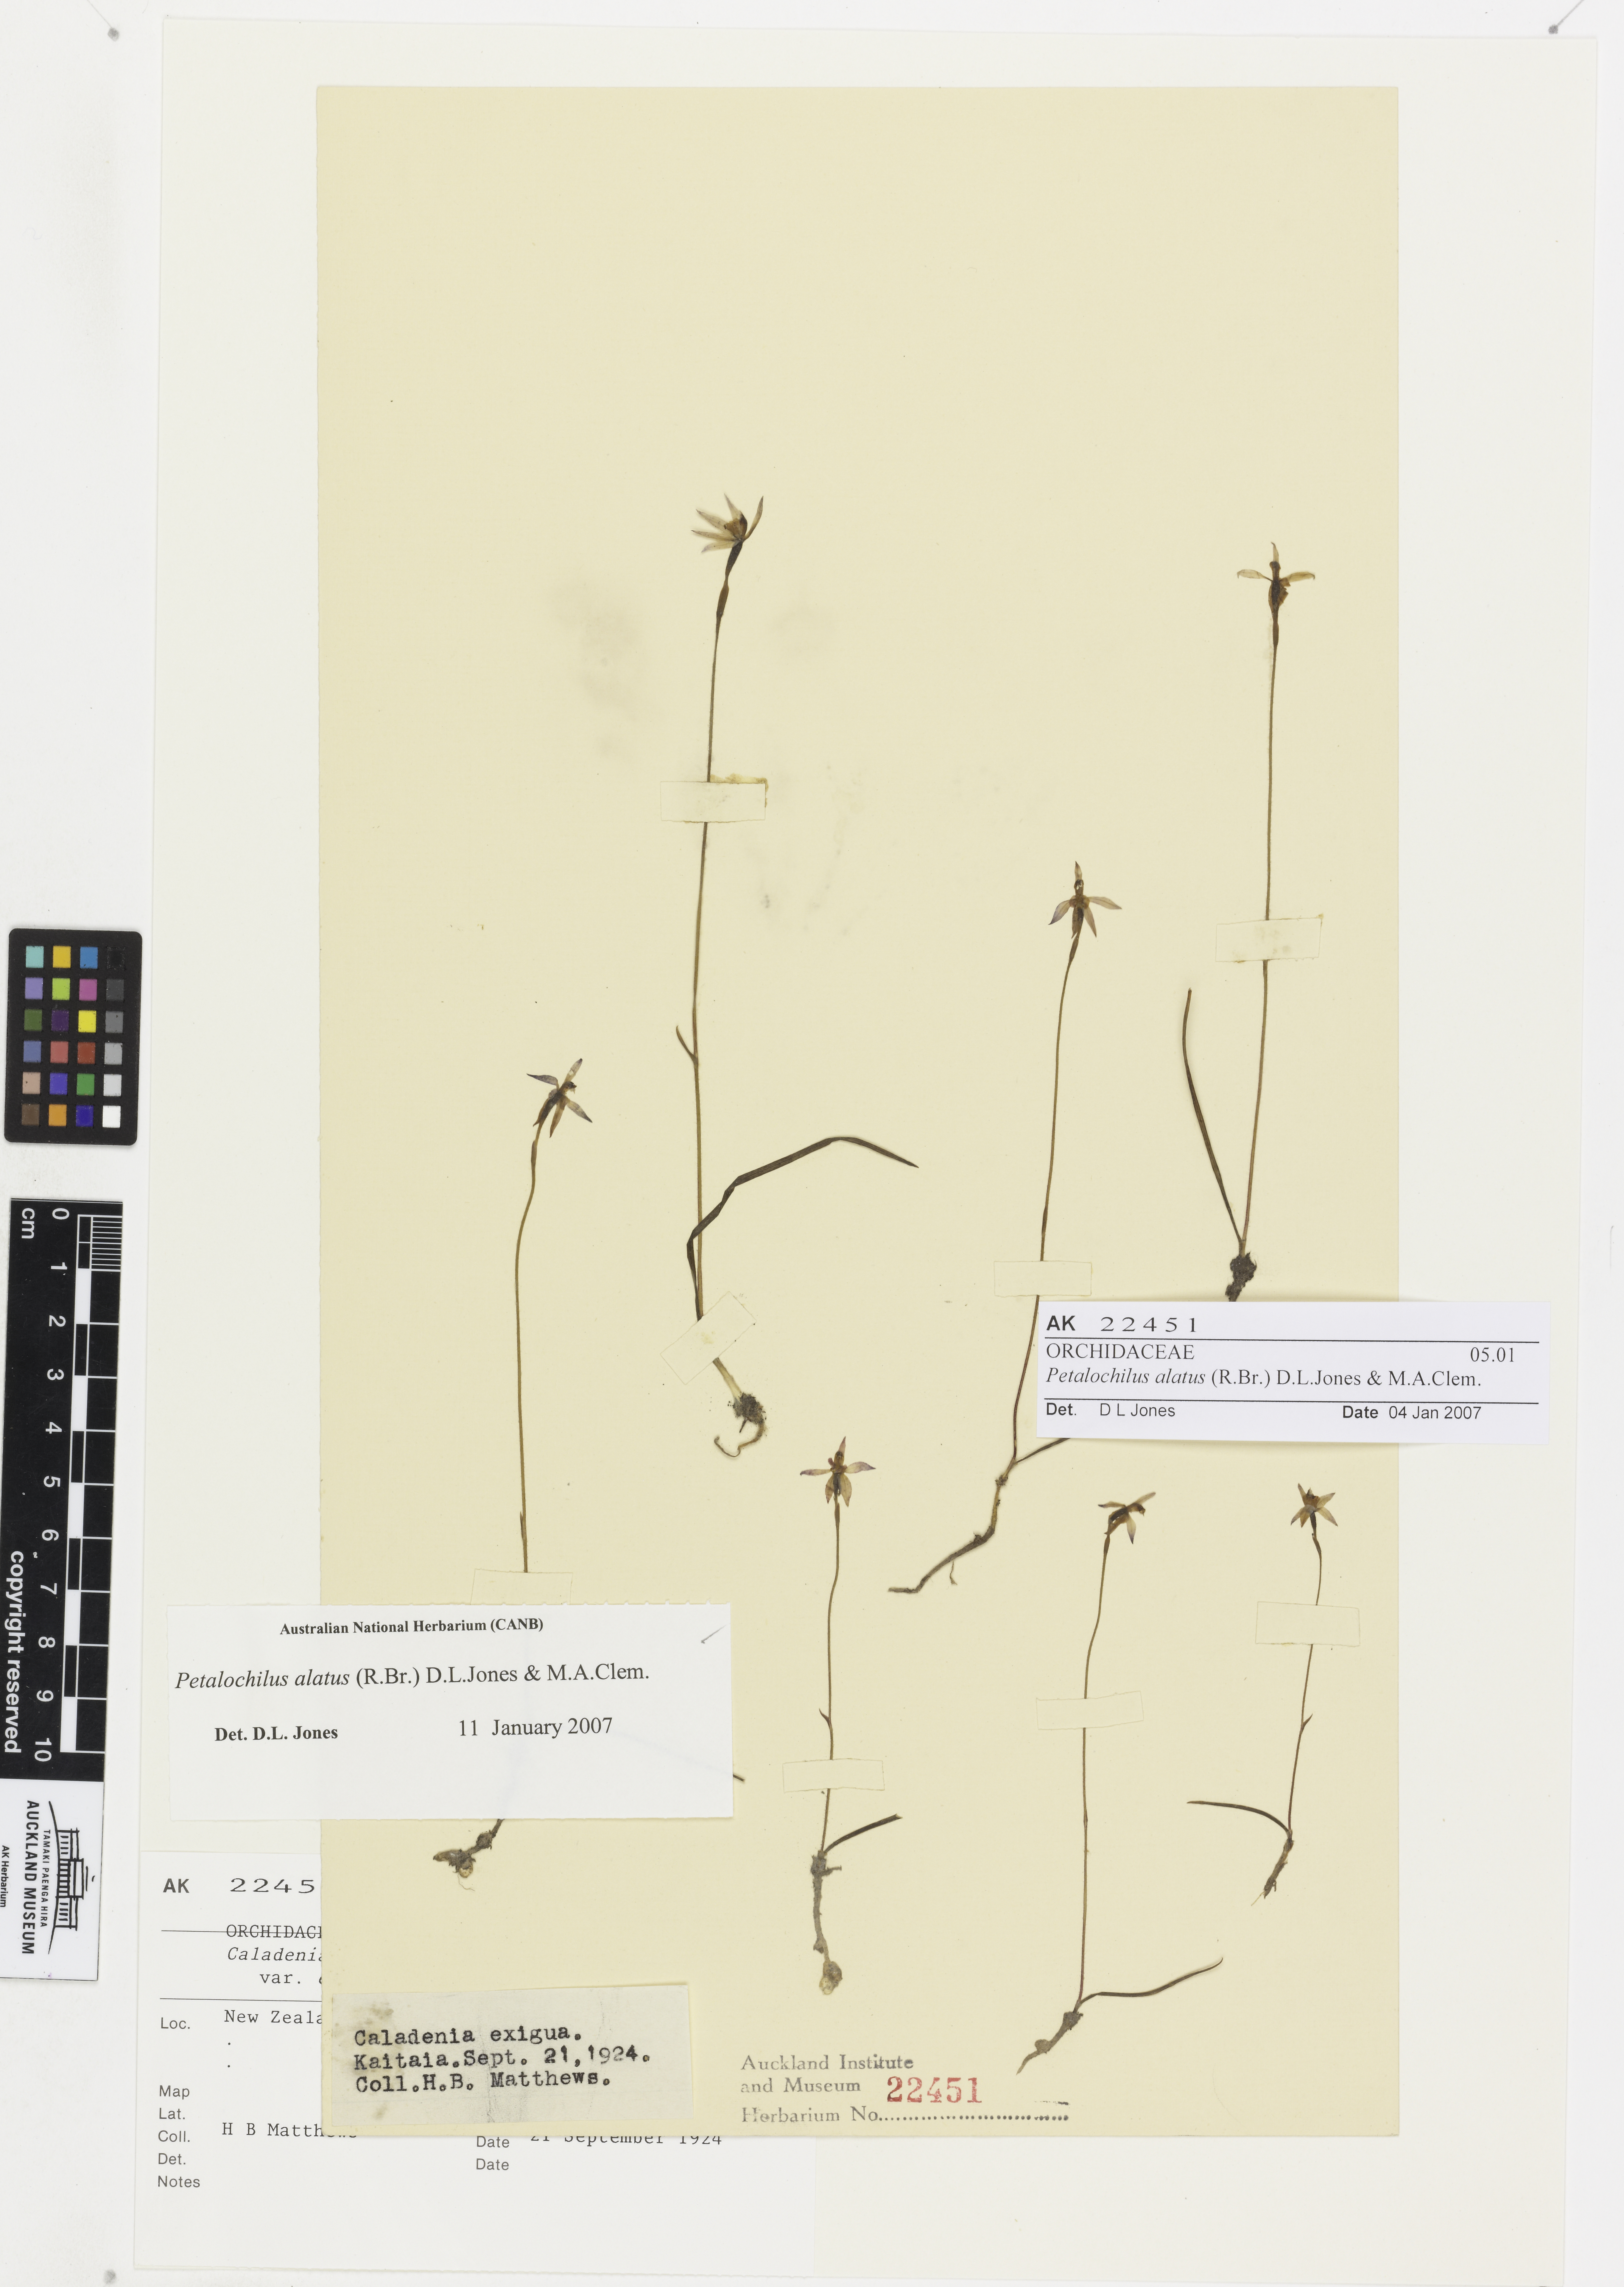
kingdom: Plantae
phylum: Tracheophyta
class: Liliopsida
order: Asparagales
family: Orchidaceae
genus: Caladenia
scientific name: Caladenia alata
